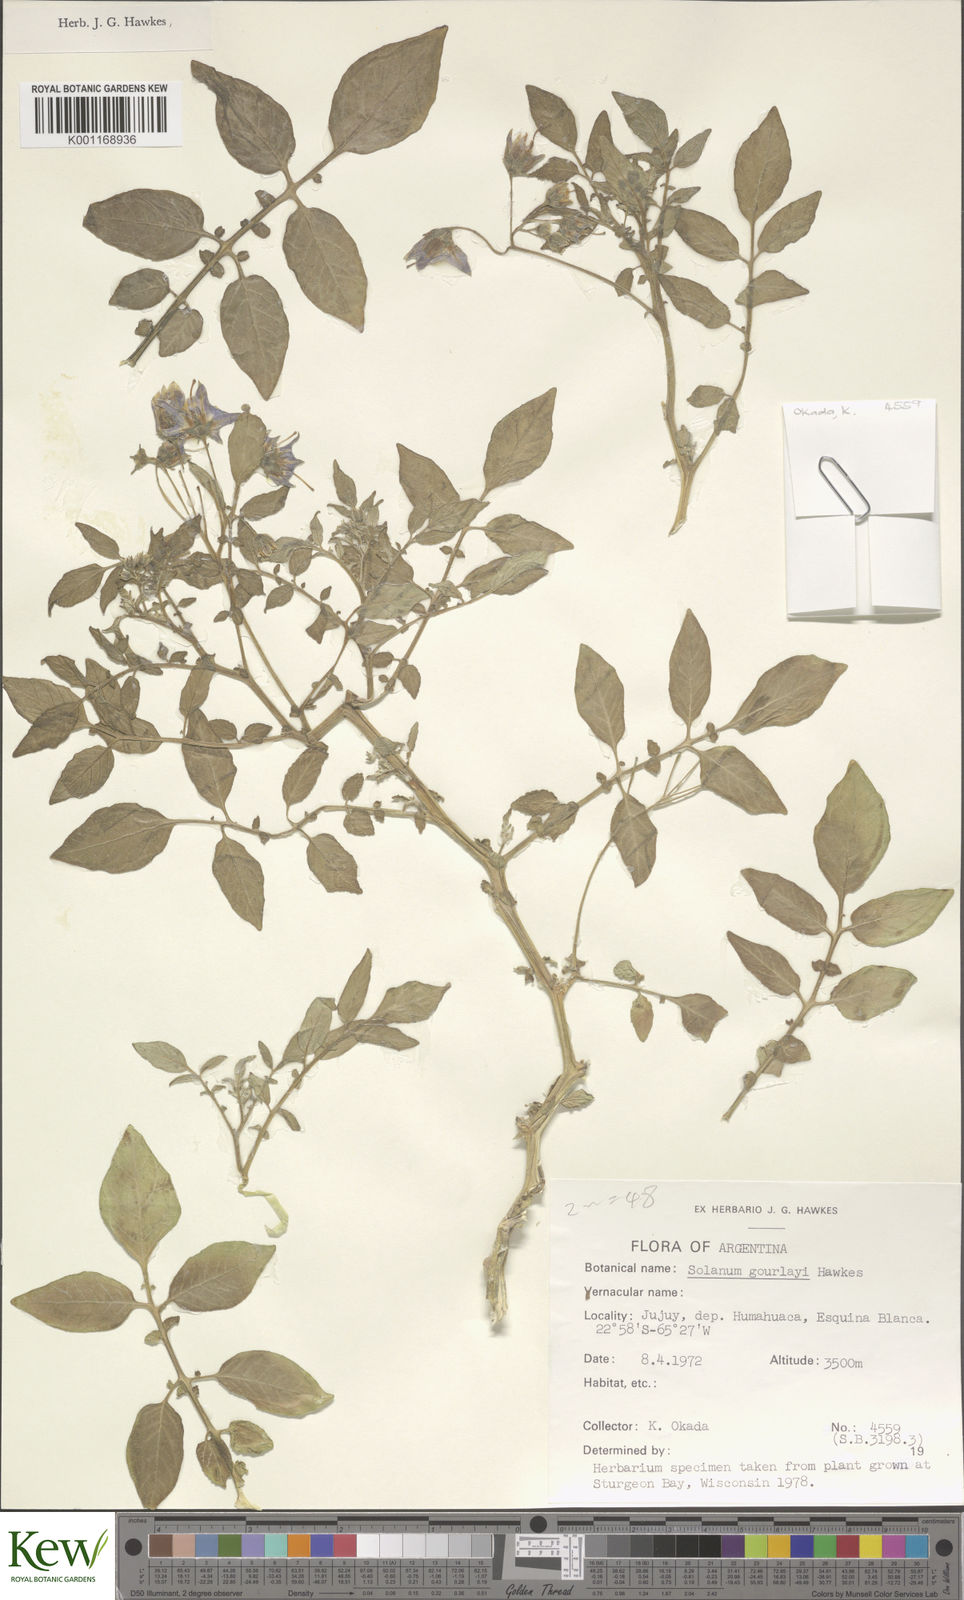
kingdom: Plantae
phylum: Tracheophyta
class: Magnoliopsida
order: Solanales
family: Solanaceae
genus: Solanum
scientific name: Solanum brevicaule
